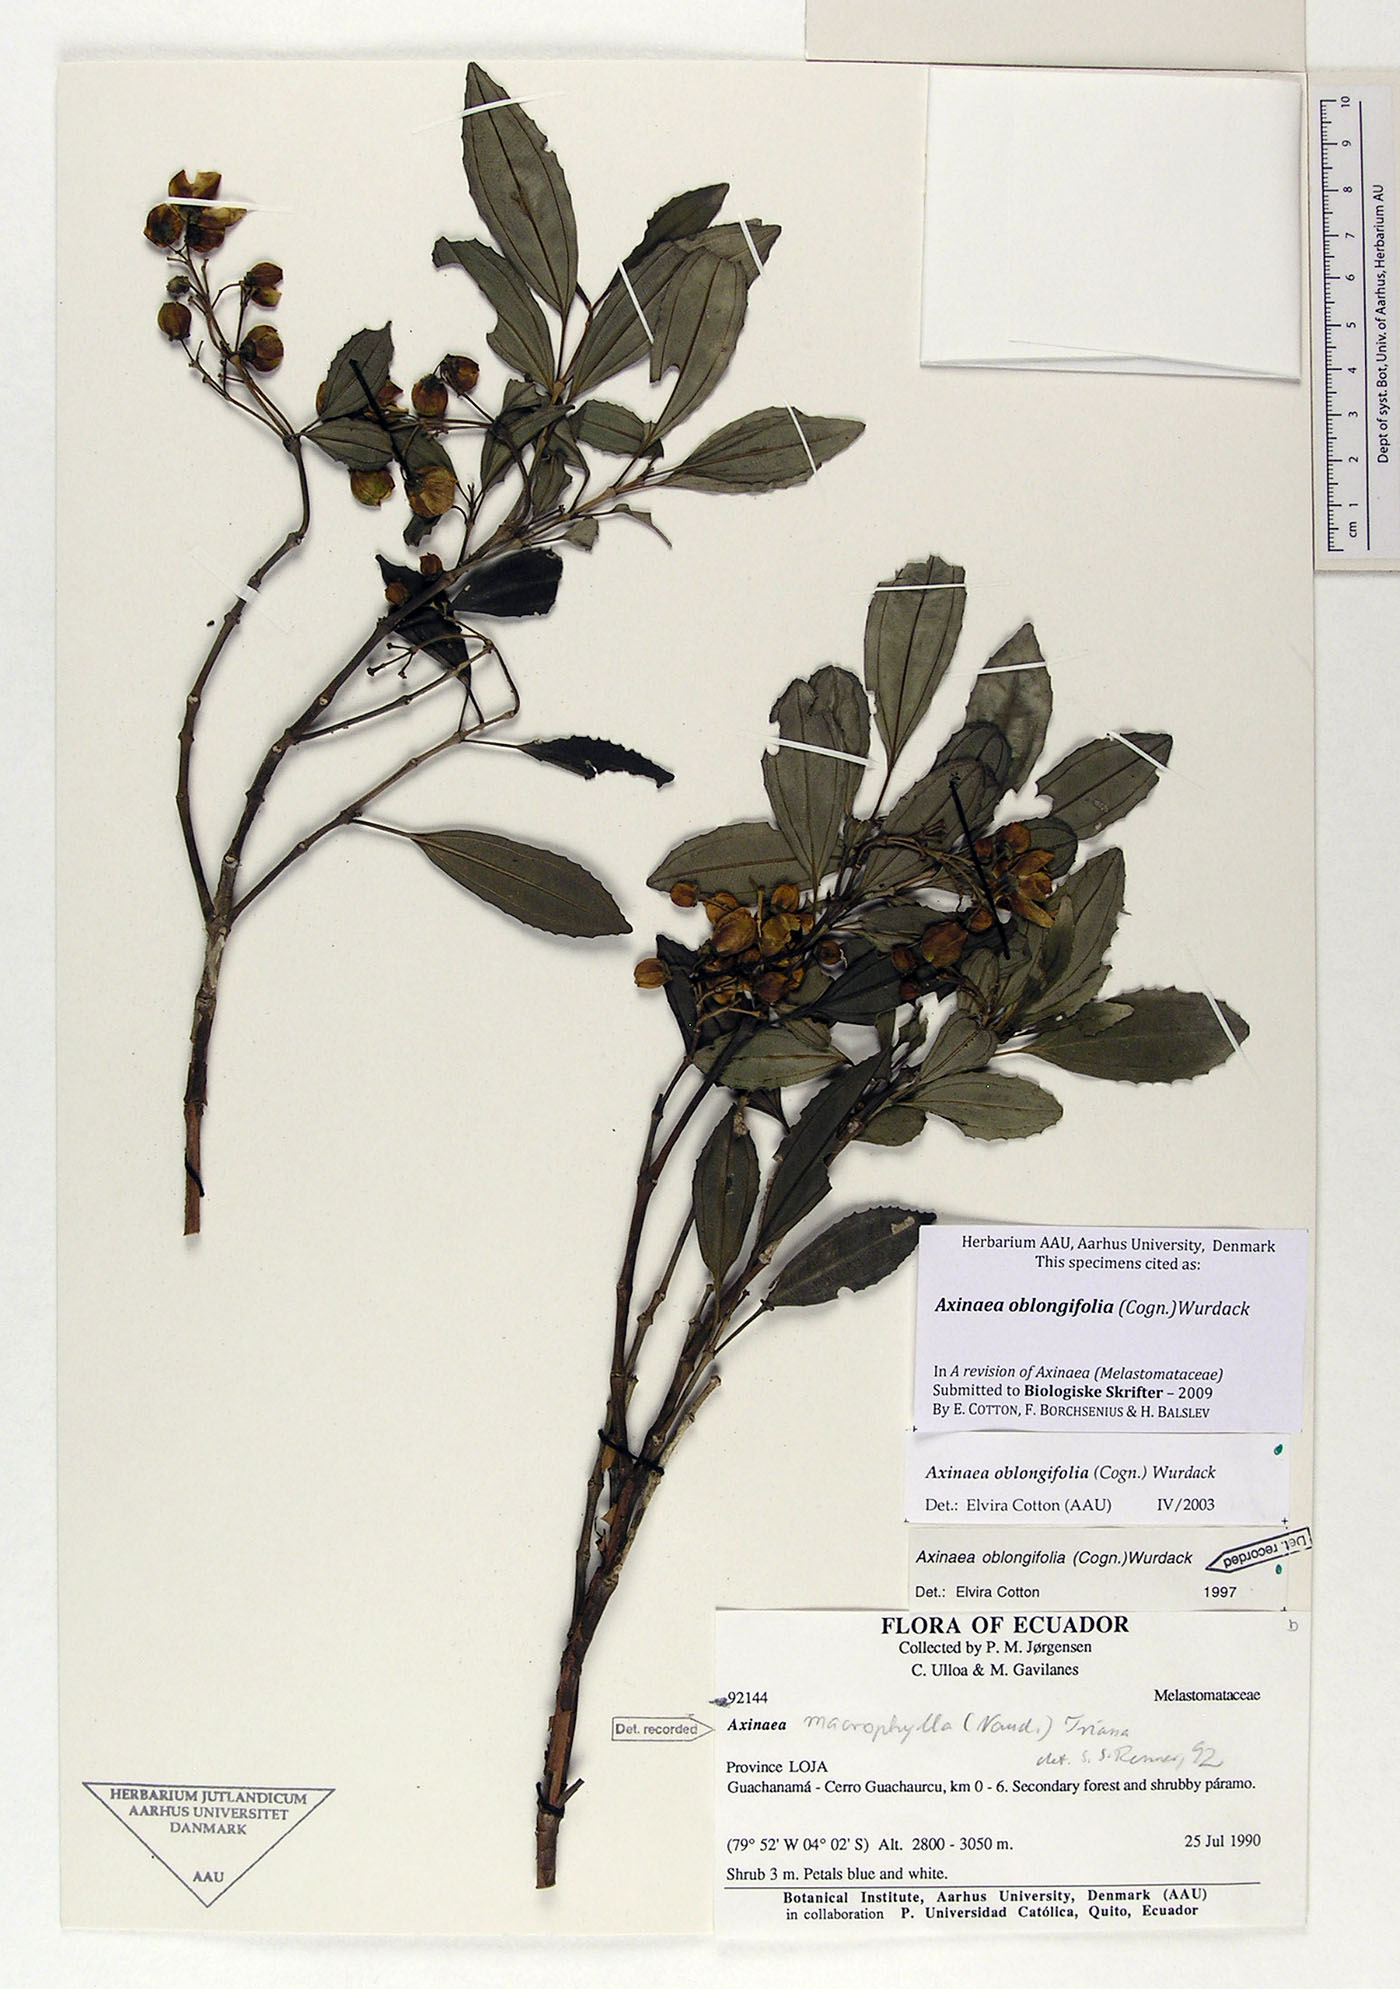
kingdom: Plantae
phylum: Tracheophyta
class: Magnoliopsida
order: Myrtales
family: Melastomataceae
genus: Axinaea
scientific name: Axinaea oblongifolia
